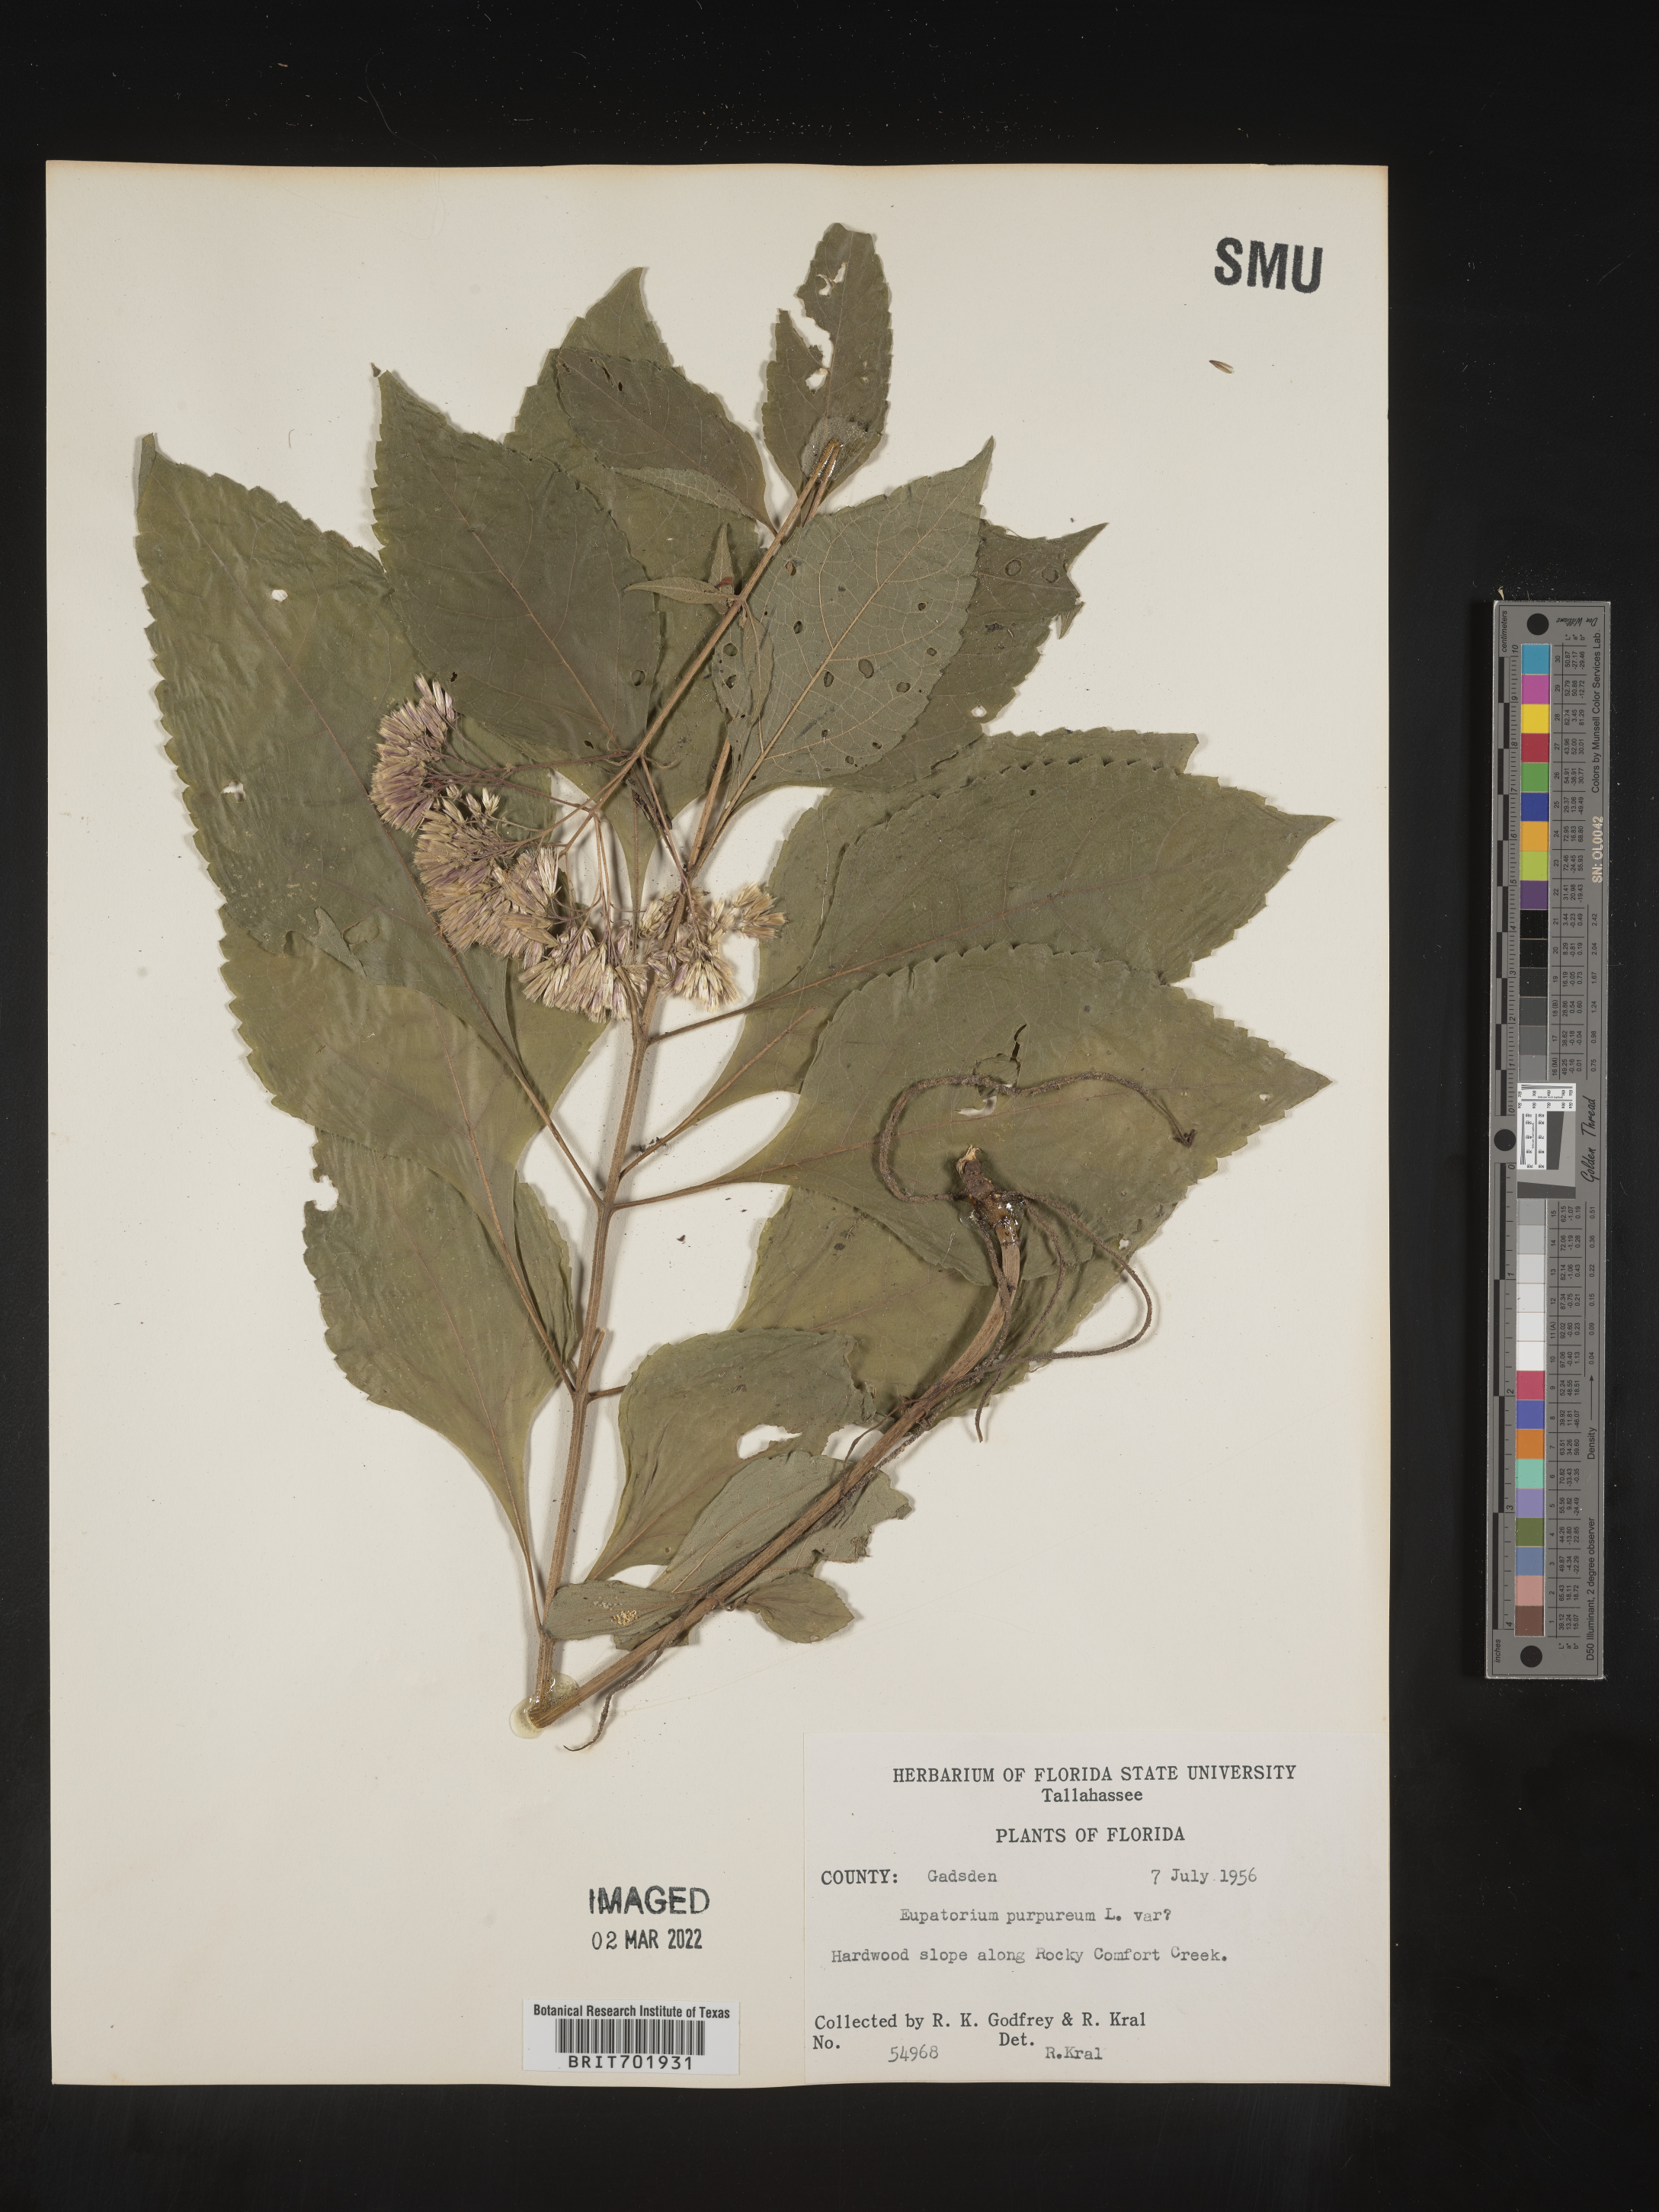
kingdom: Plantae
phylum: Tracheophyta
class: Magnoliopsida
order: Asterales
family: Asteraceae
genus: Eupatorium
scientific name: Eupatorium quaternum
